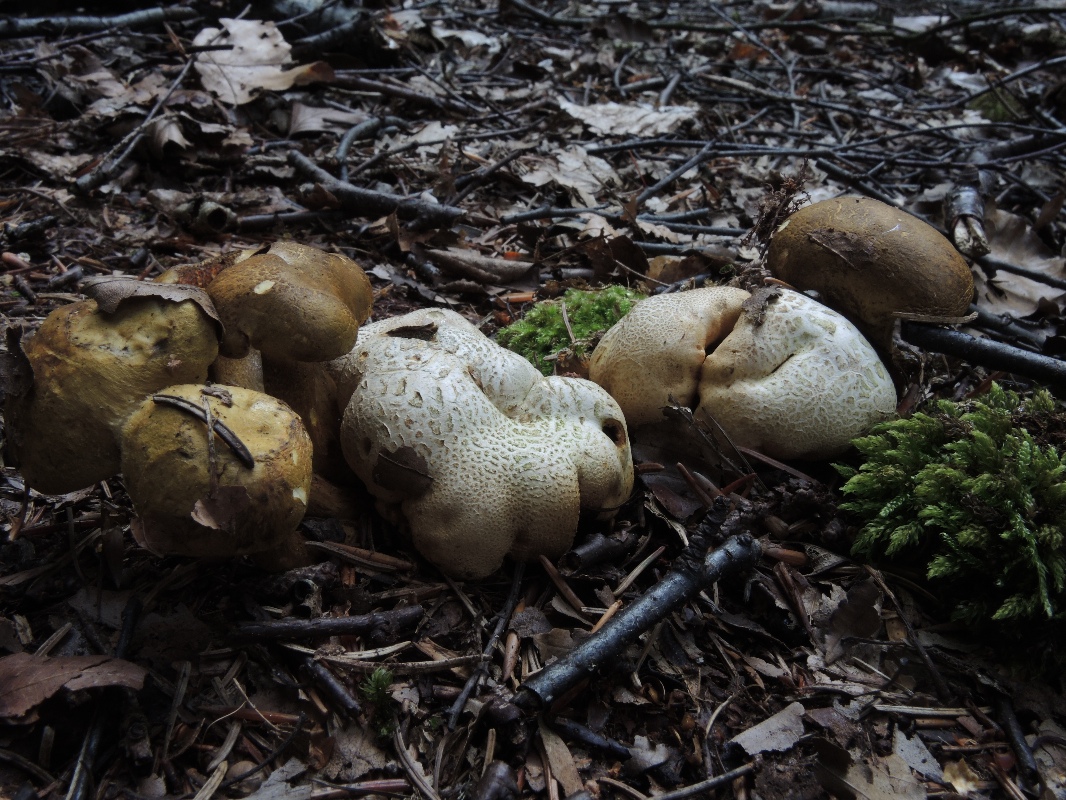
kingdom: Fungi
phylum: Basidiomycota
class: Agaricomycetes
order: Boletales
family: Boletaceae
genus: Pseudoboletus
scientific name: Pseudoboletus parasiticus
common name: snyltende rørhat
